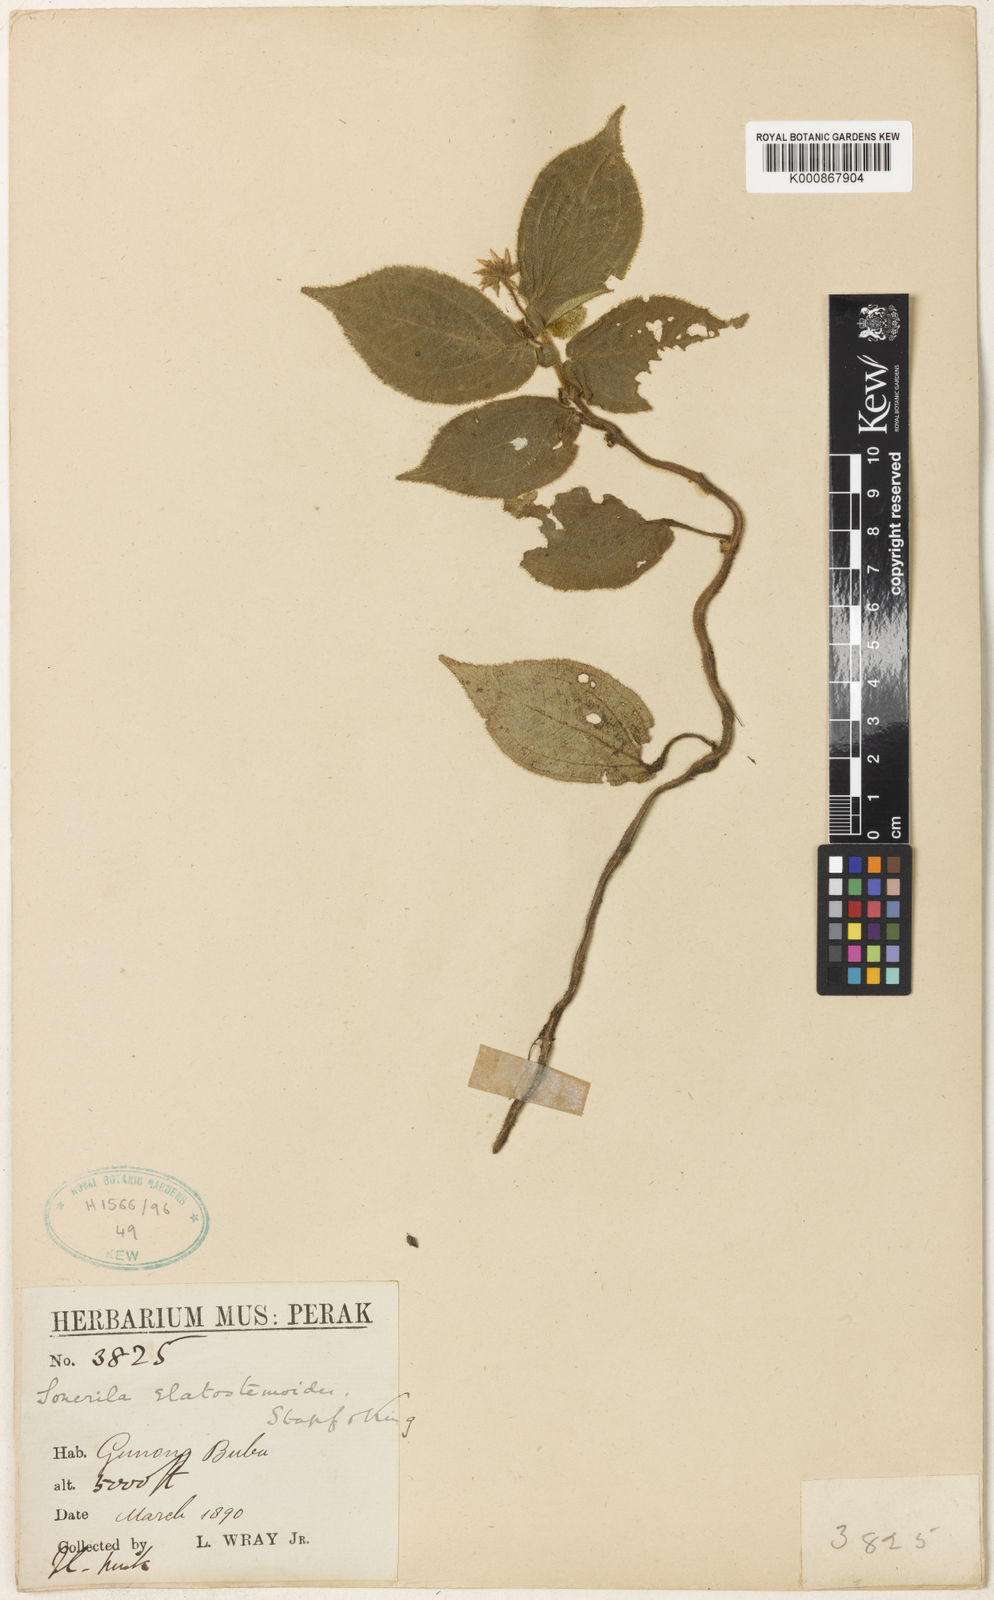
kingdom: Plantae
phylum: Tracheophyta
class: Magnoliopsida
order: Myrtales
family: Melastomataceae
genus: Sonerila
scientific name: Sonerila elatostemoides
